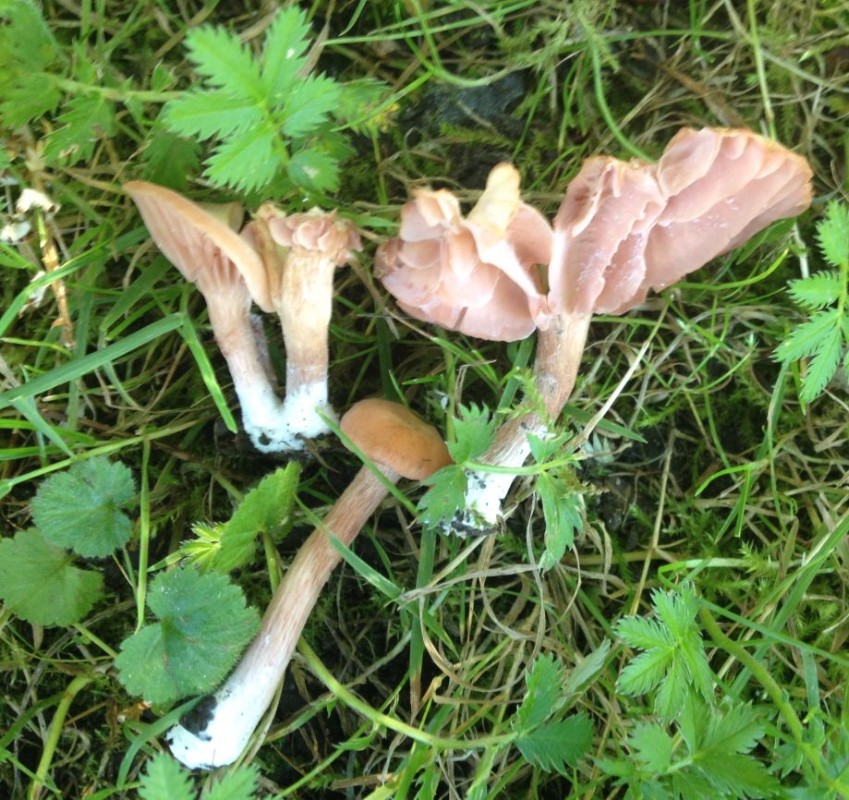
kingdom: Fungi
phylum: Basidiomycota
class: Agaricomycetes
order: Agaricales
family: Hydnangiaceae
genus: Laccaria
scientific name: Laccaria laccata
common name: rød ametysthat
